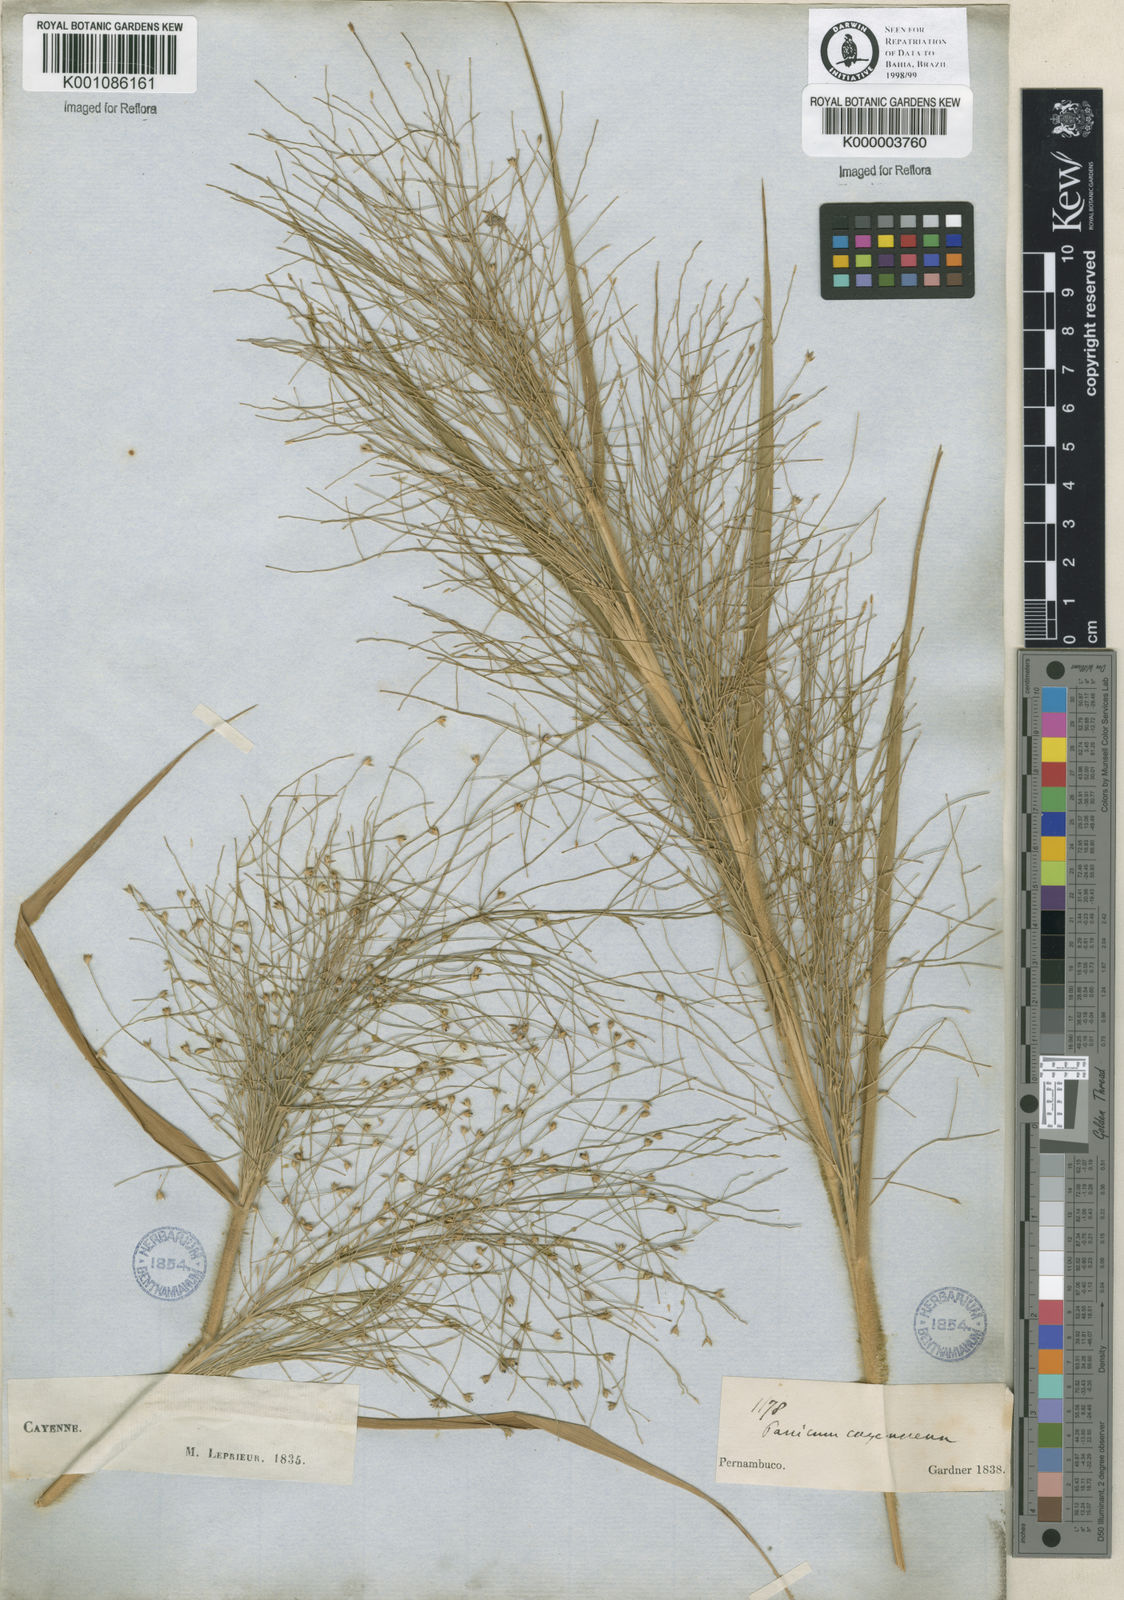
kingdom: Plantae
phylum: Tracheophyta
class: Liliopsida
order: Poales
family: Poaceae
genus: Panicum
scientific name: Panicum rudgei
